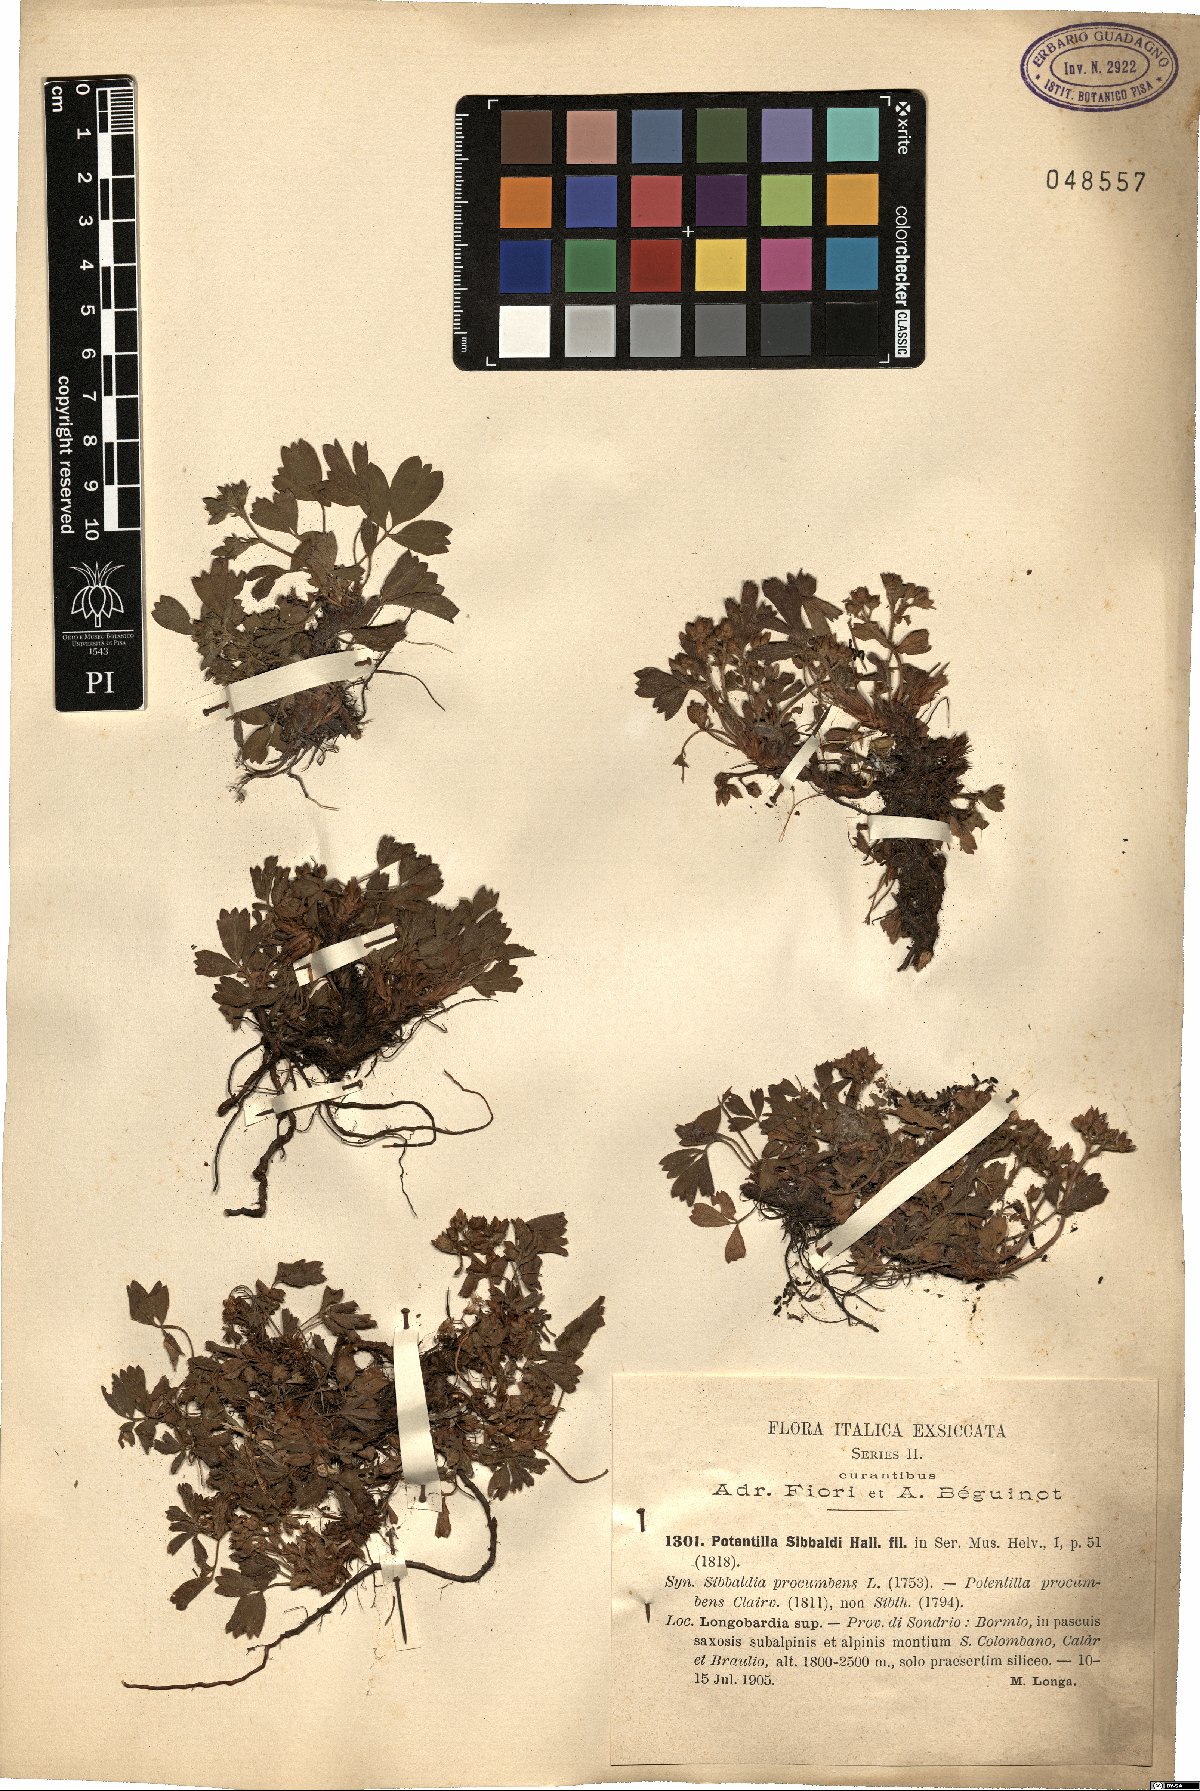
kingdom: Plantae
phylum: Tracheophyta
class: Magnoliopsida
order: Rosales
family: Rosaceae
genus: Sibbaldia
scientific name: Sibbaldia procumbens
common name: Creeping sibbaldia
